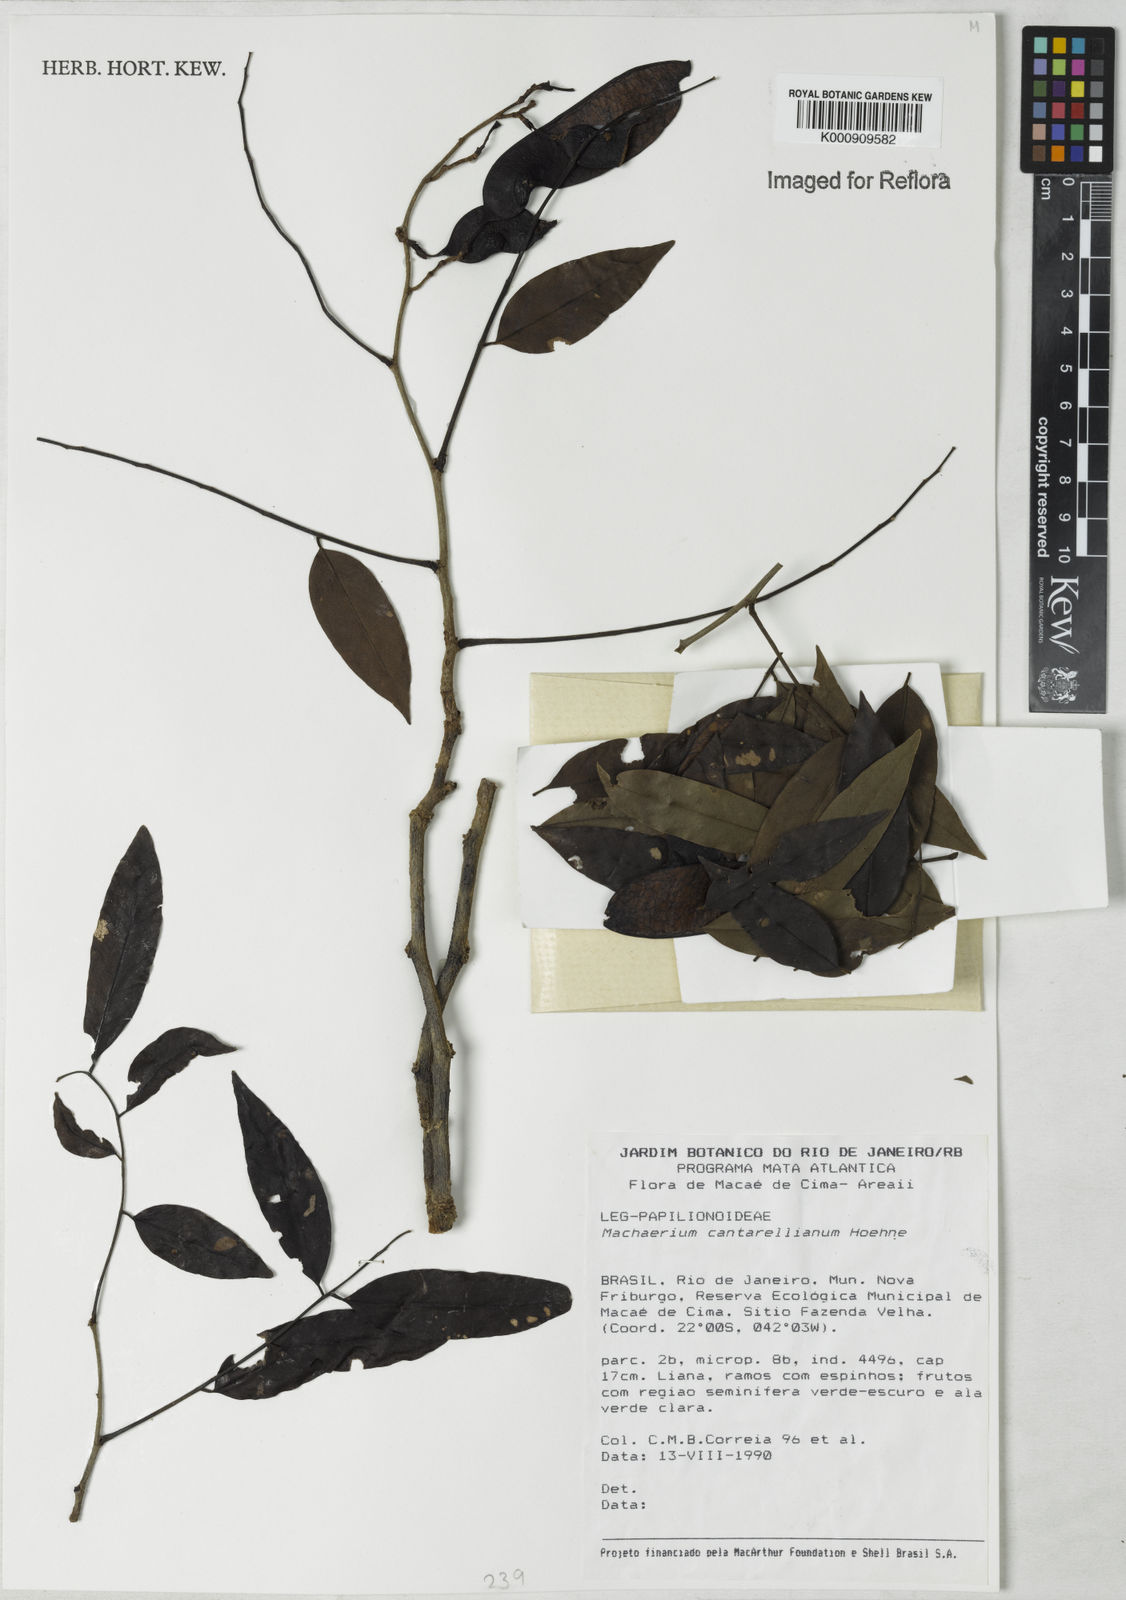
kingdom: Plantae
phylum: Tracheophyta
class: Magnoliopsida
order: Fabales
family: Fabaceae
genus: Machaerium
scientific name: Machaerium cantarellianum
